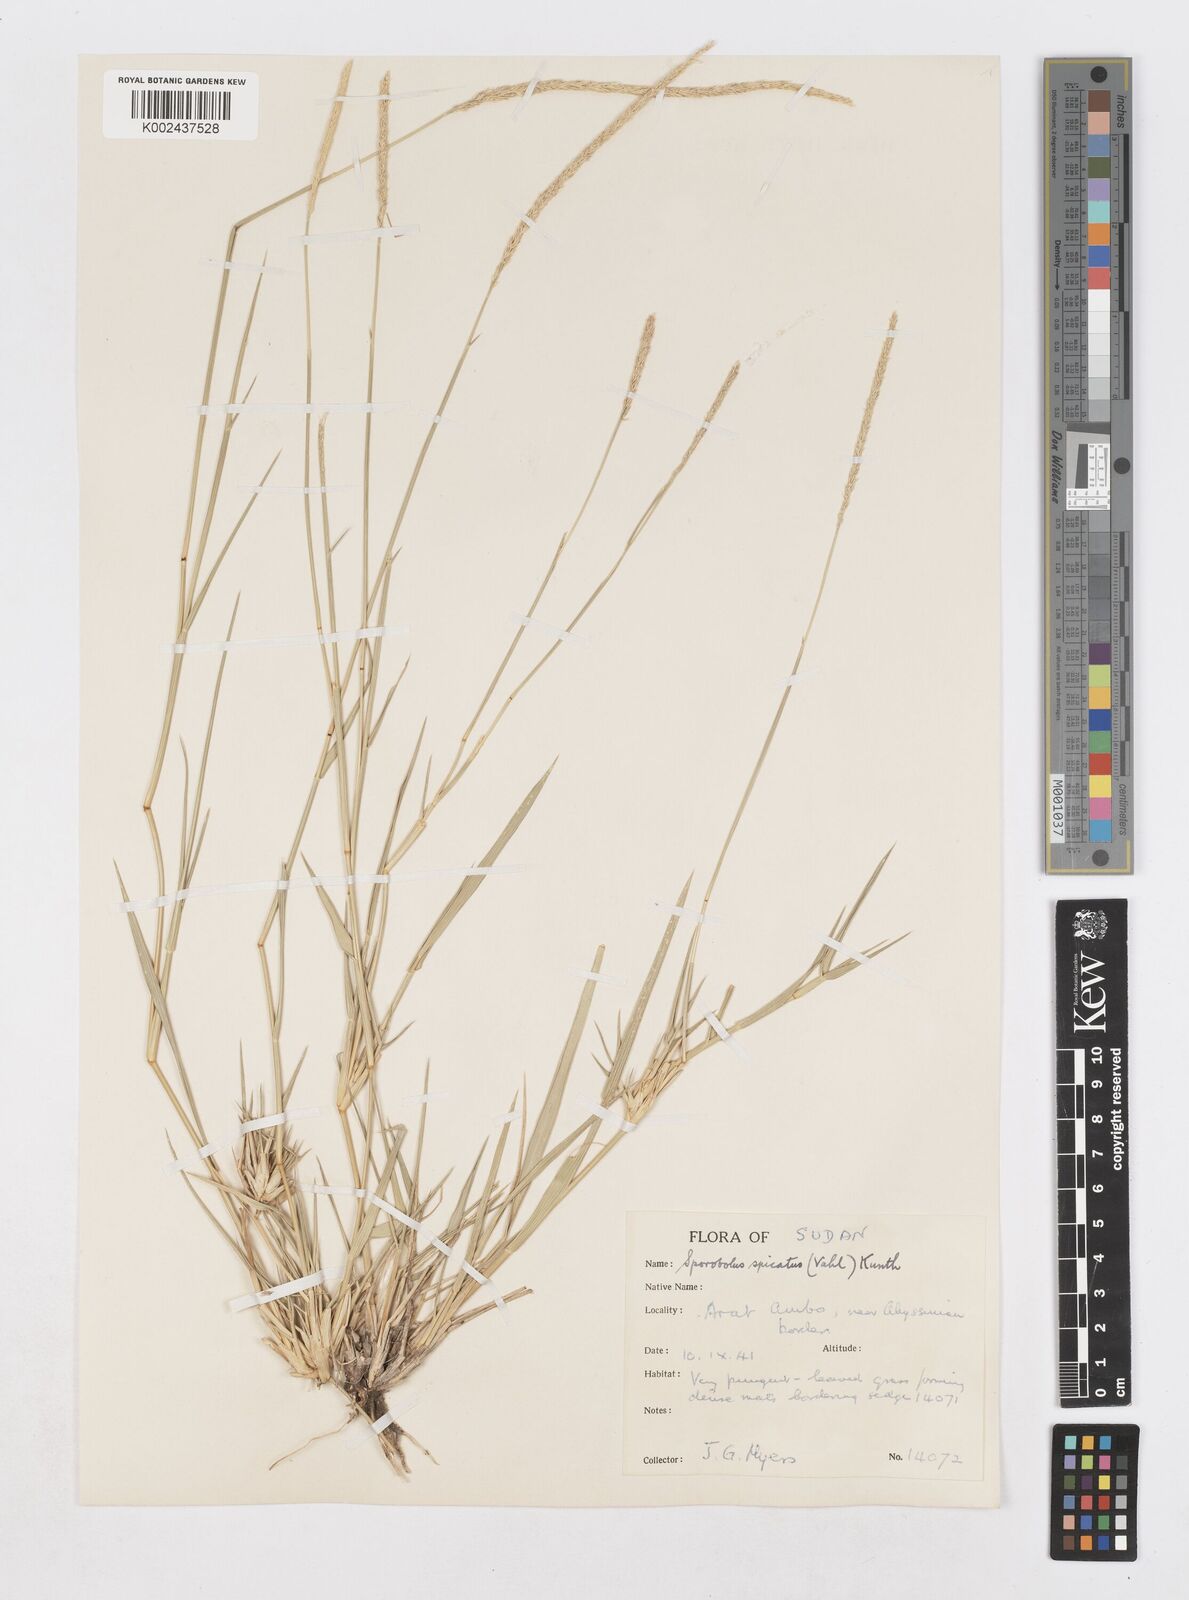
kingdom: Plantae
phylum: Tracheophyta
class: Liliopsida
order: Poales
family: Poaceae
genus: Sporobolus
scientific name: Sporobolus spicatus
